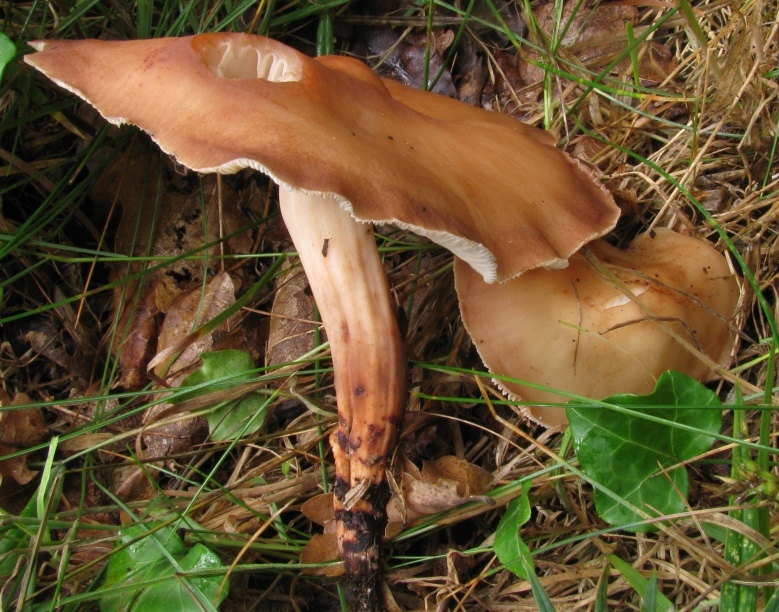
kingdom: Fungi
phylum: Basidiomycota
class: Agaricomycetes
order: Agaricales
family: Omphalotaceae
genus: Gymnopus
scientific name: Gymnopus fusipes
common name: tenstokket fladhat
